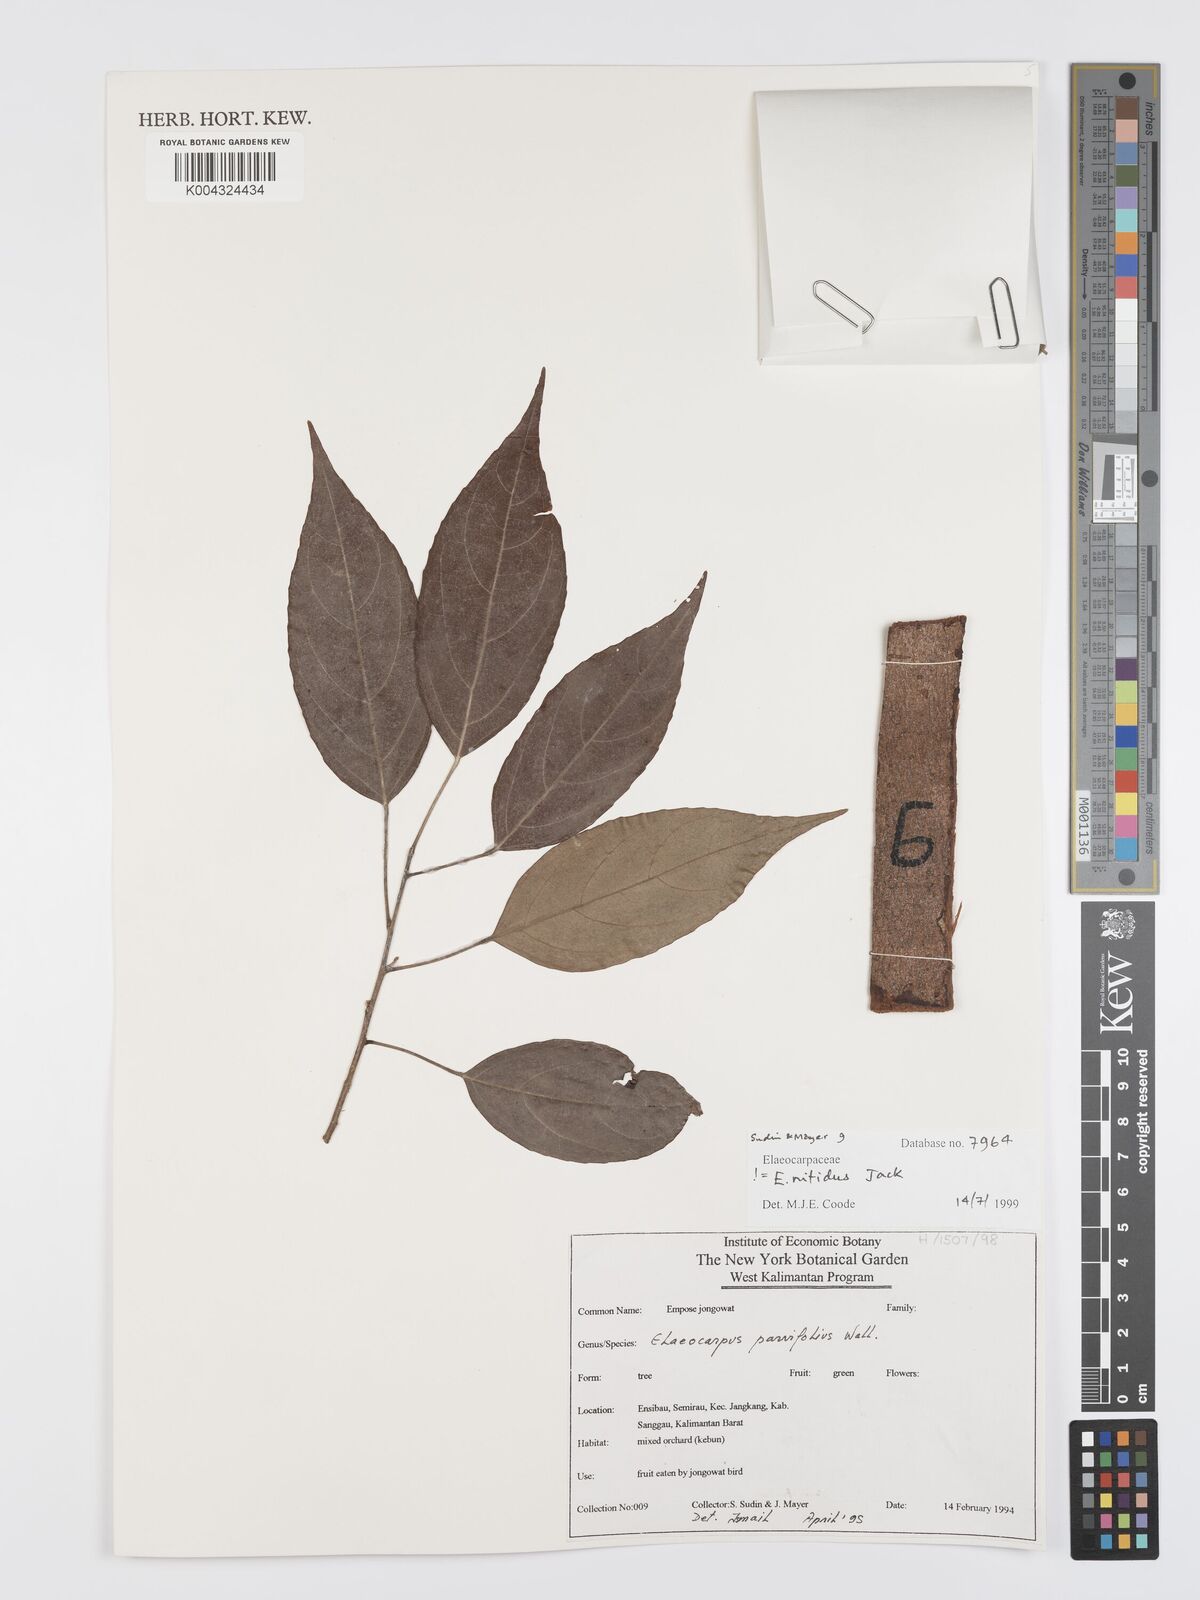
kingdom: Plantae
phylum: Tracheophyta
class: Magnoliopsida
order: Oxalidales
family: Elaeocarpaceae
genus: Elaeocarpus
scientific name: Elaeocarpus nitidus
